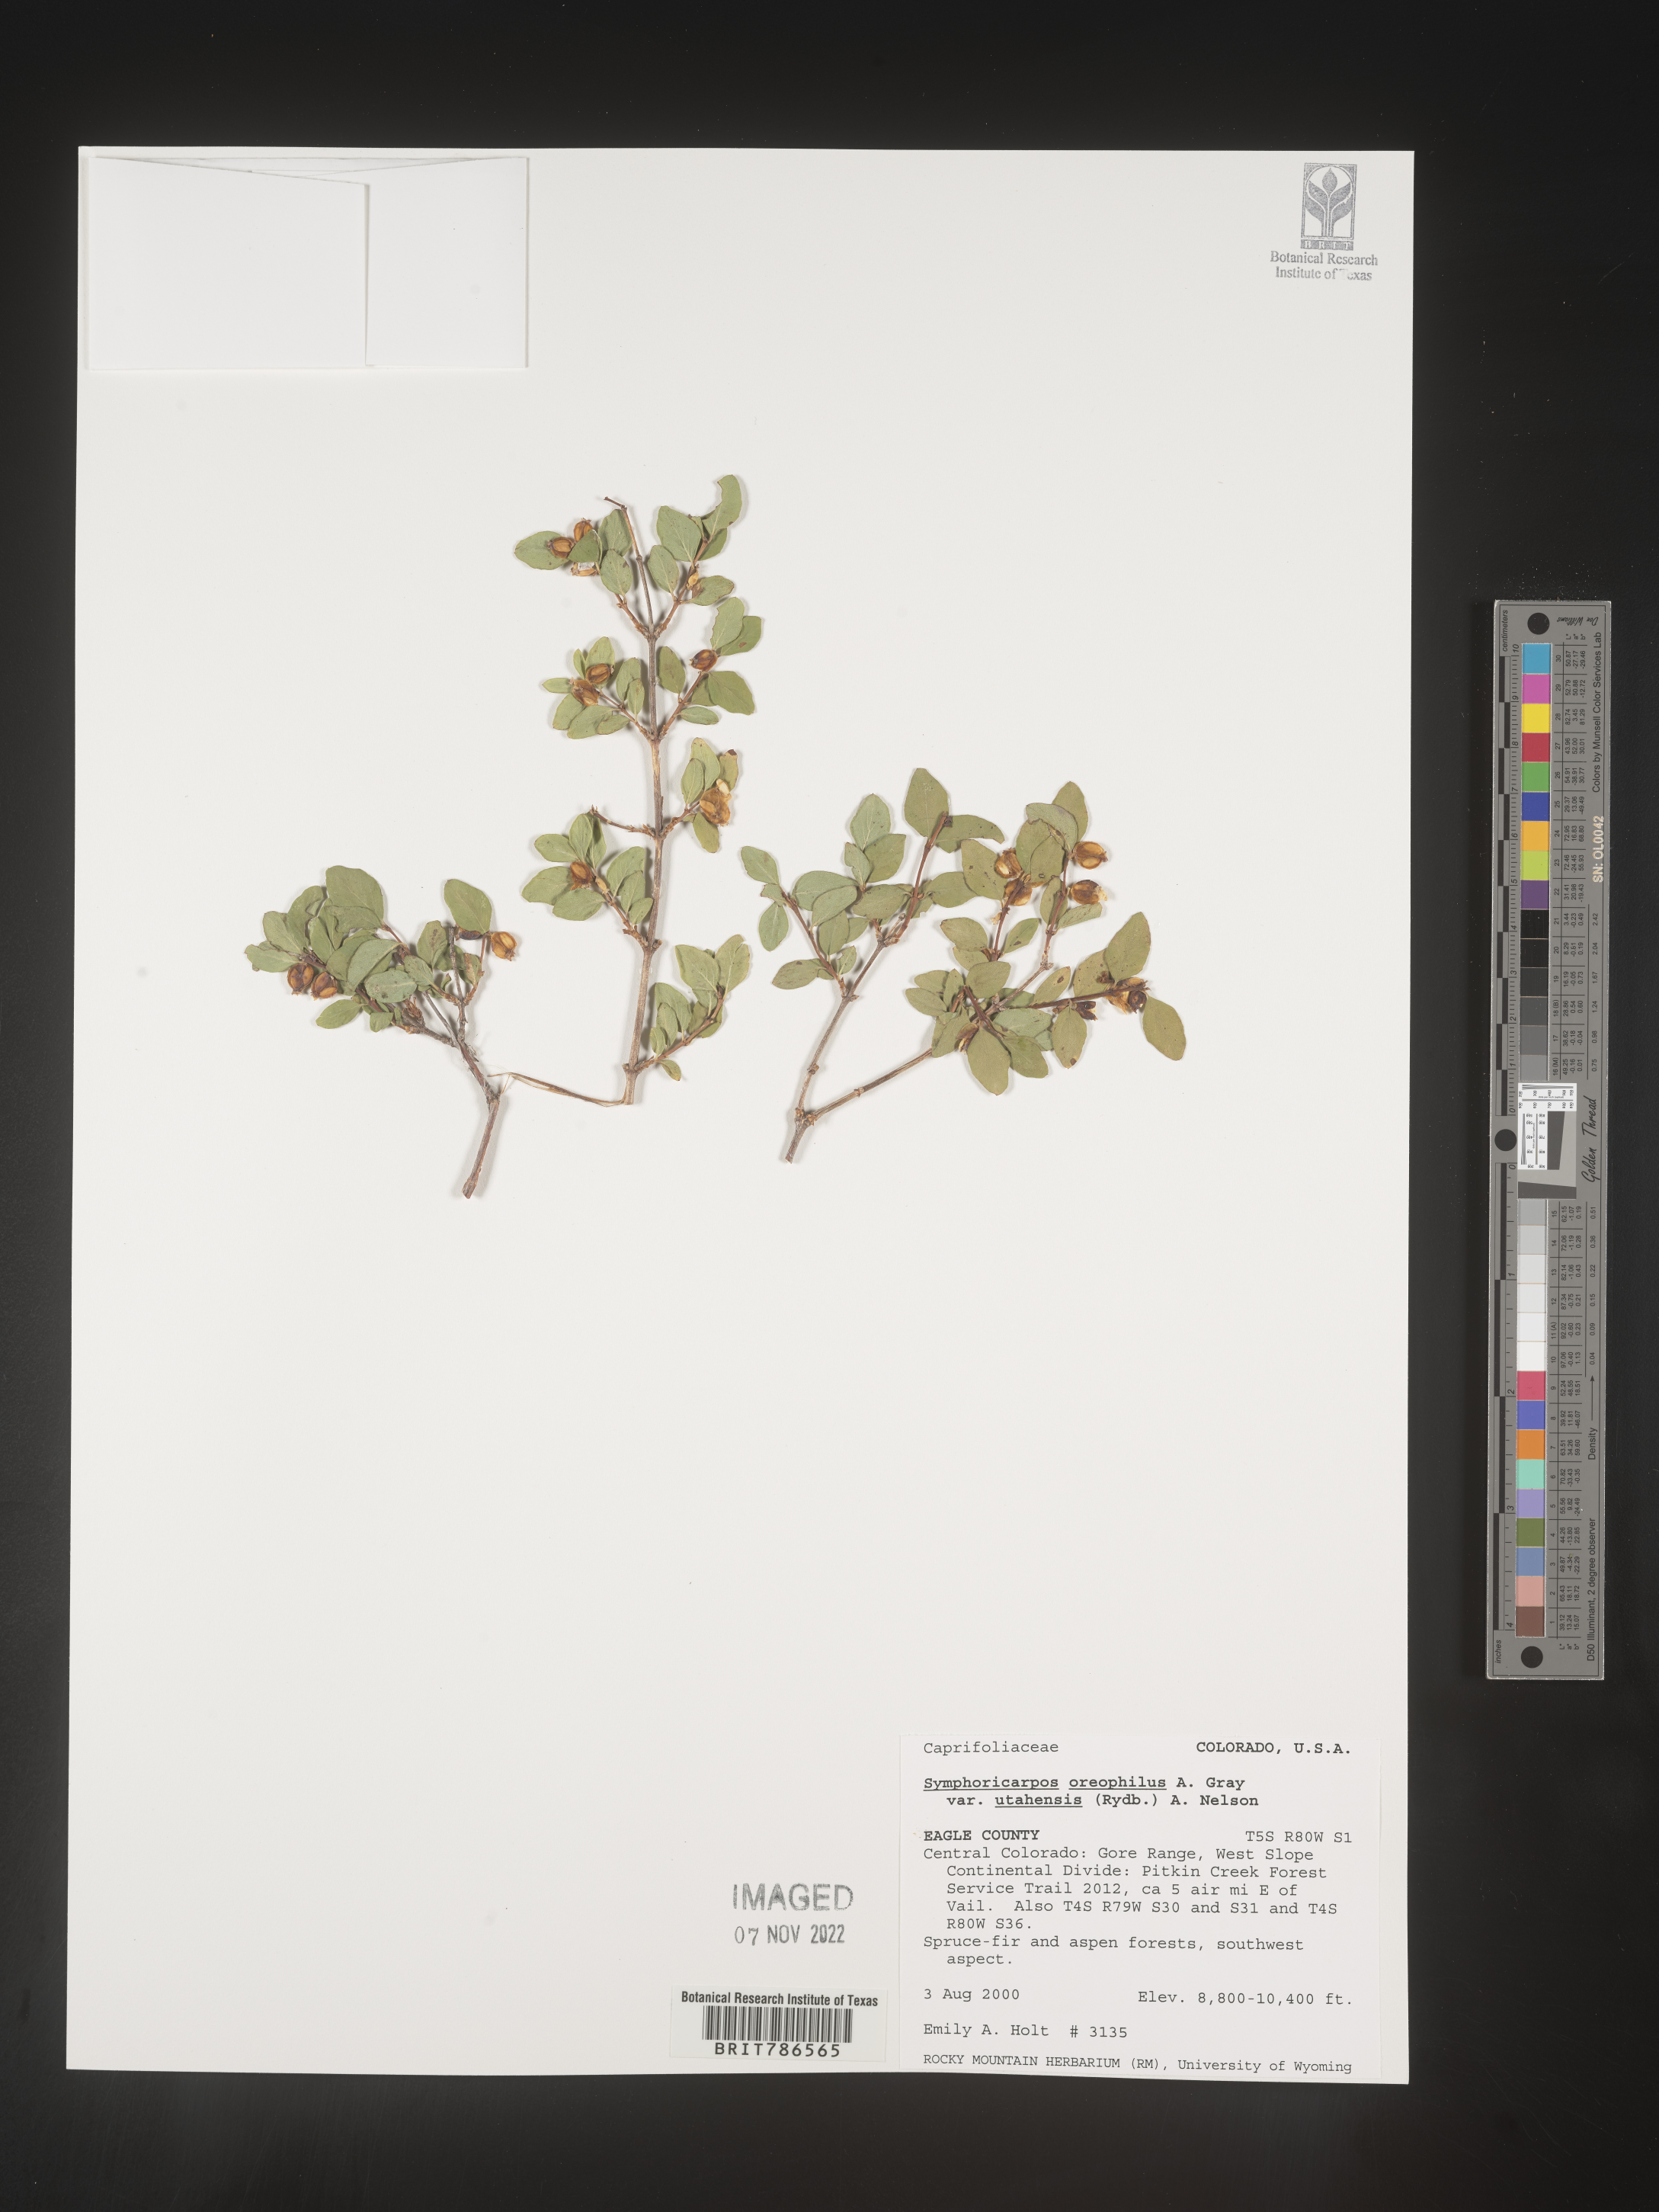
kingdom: Plantae
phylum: Tracheophyta
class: Magnoliopsida
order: Dipsacales
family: Caprifoliaceae
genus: Symphoricarpos
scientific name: Symphoricarpos oreophilus
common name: Mountain snowberry
